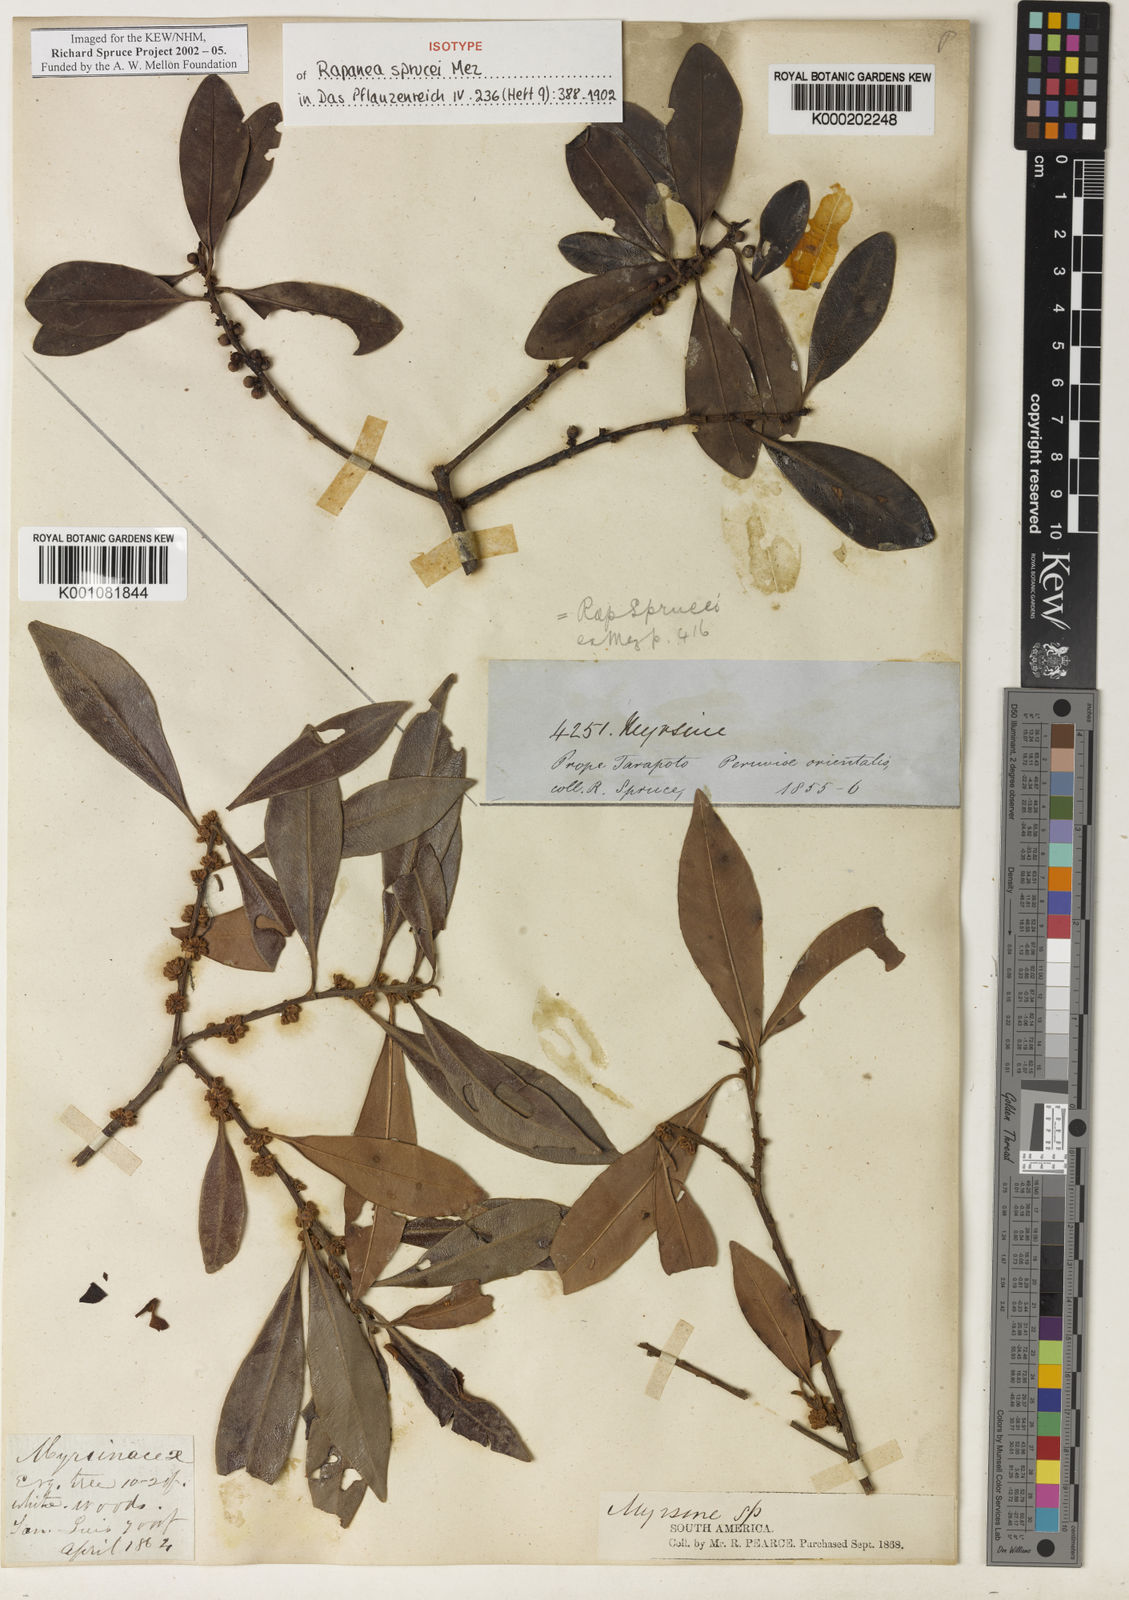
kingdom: Plantae
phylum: Tracheophyta
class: Magnoliopsida
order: Ericales
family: Primulaceae
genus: Myrsine
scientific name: Myrsine sprucei
